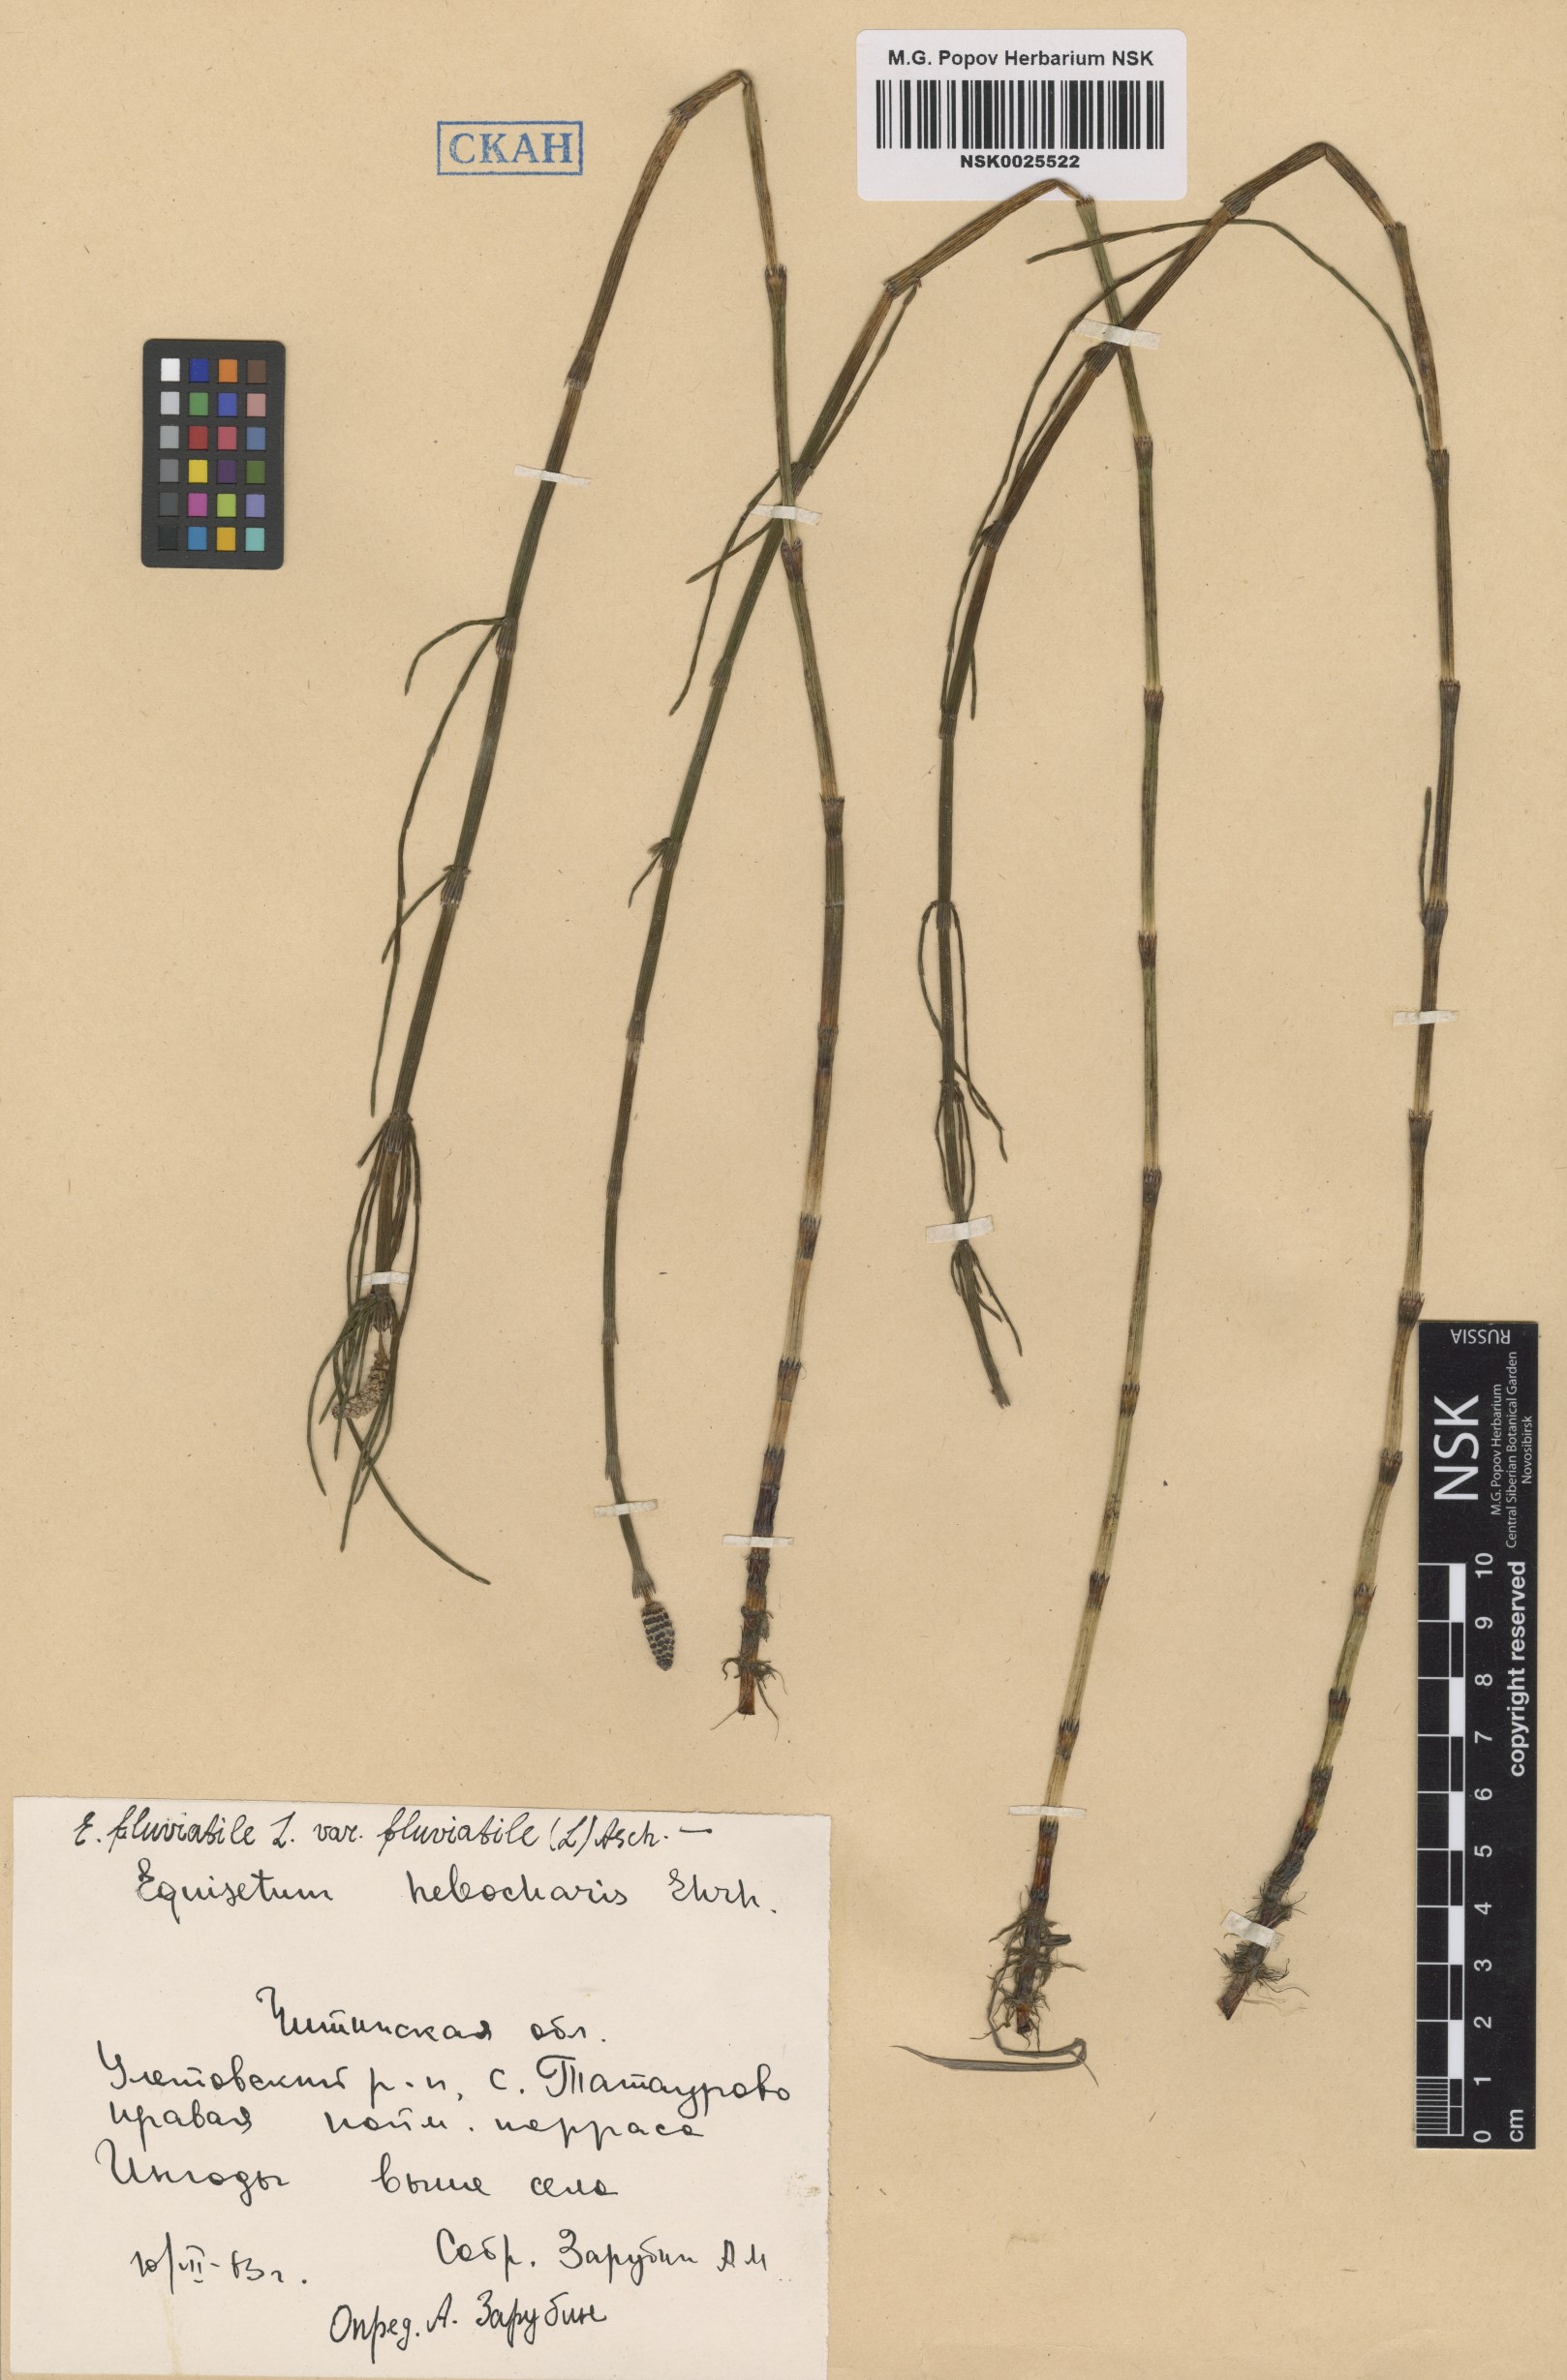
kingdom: Plantae
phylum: Tracheophyta
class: Polypodiopsida
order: Equisetales
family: Equisetaceae
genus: Equisetum
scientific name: Equisetum fluviatile
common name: Water horsetail
